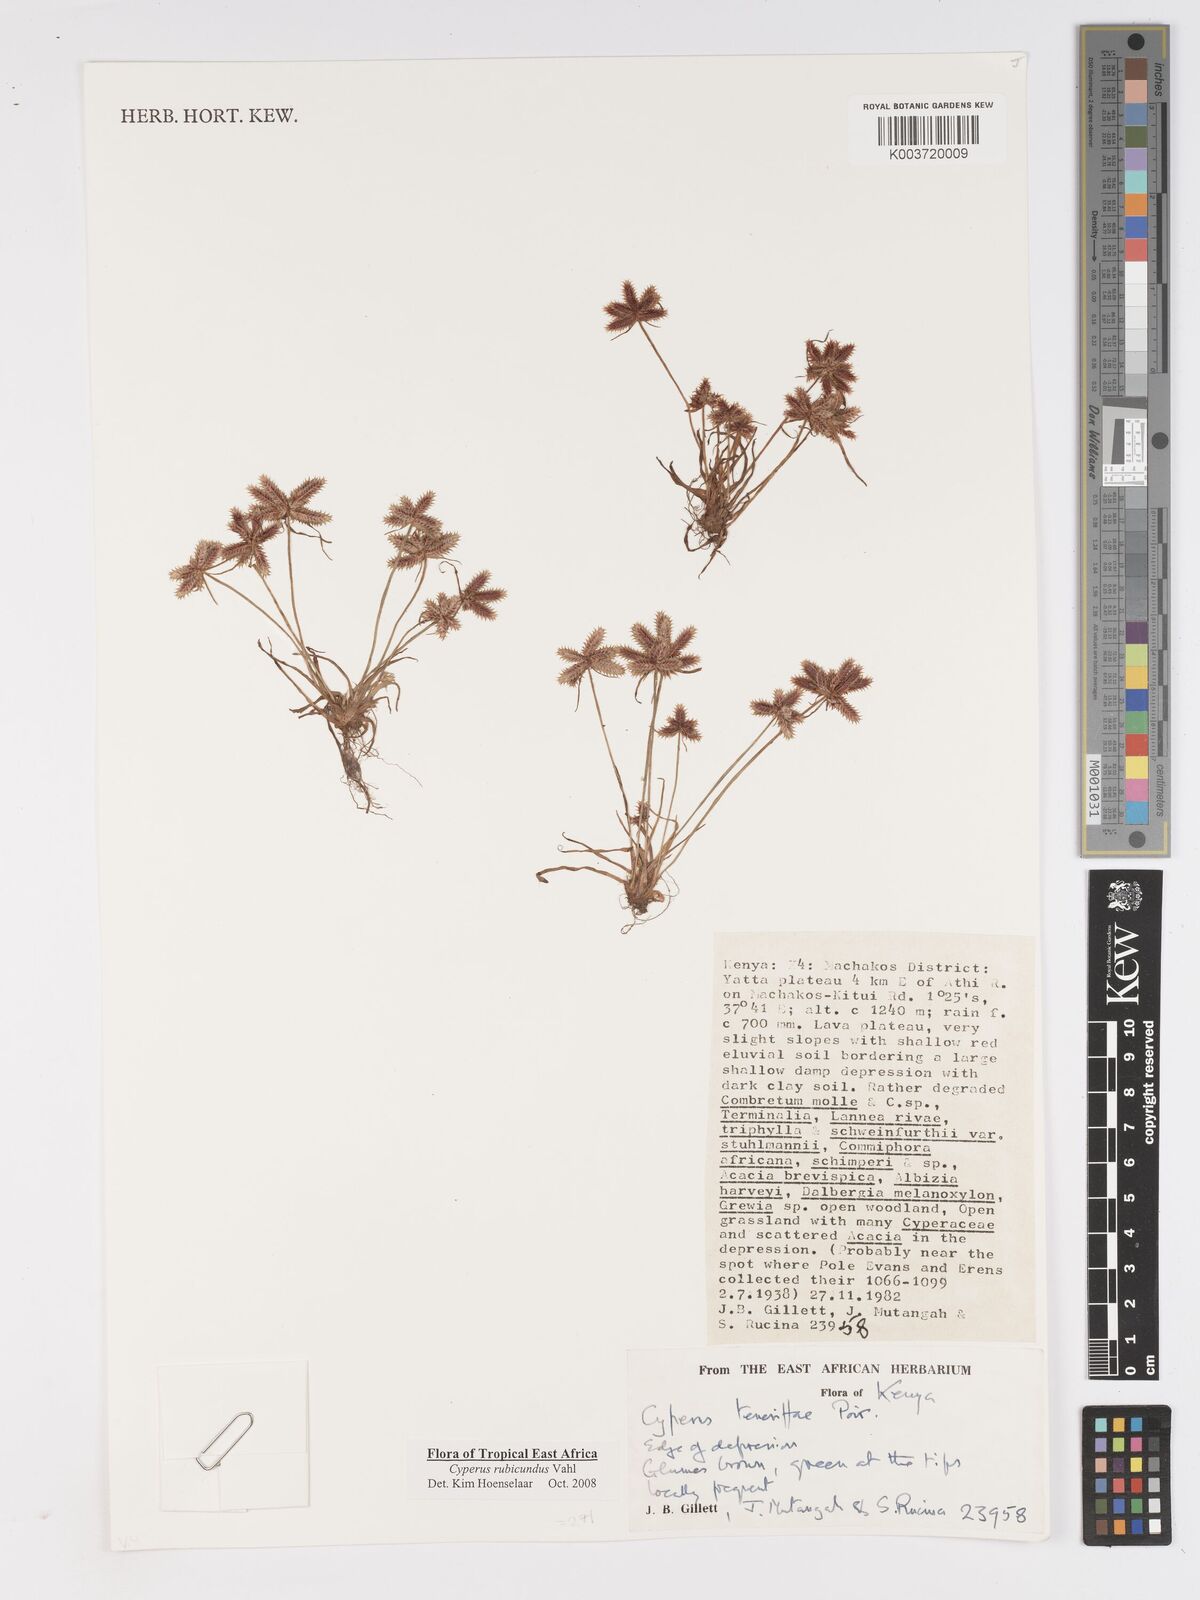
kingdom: Plantae
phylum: Tracheophyta
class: Liliopsida
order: Poales
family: Cyperaceae
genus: Cyperus
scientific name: Cyperus rubicundus
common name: Coco-grass
